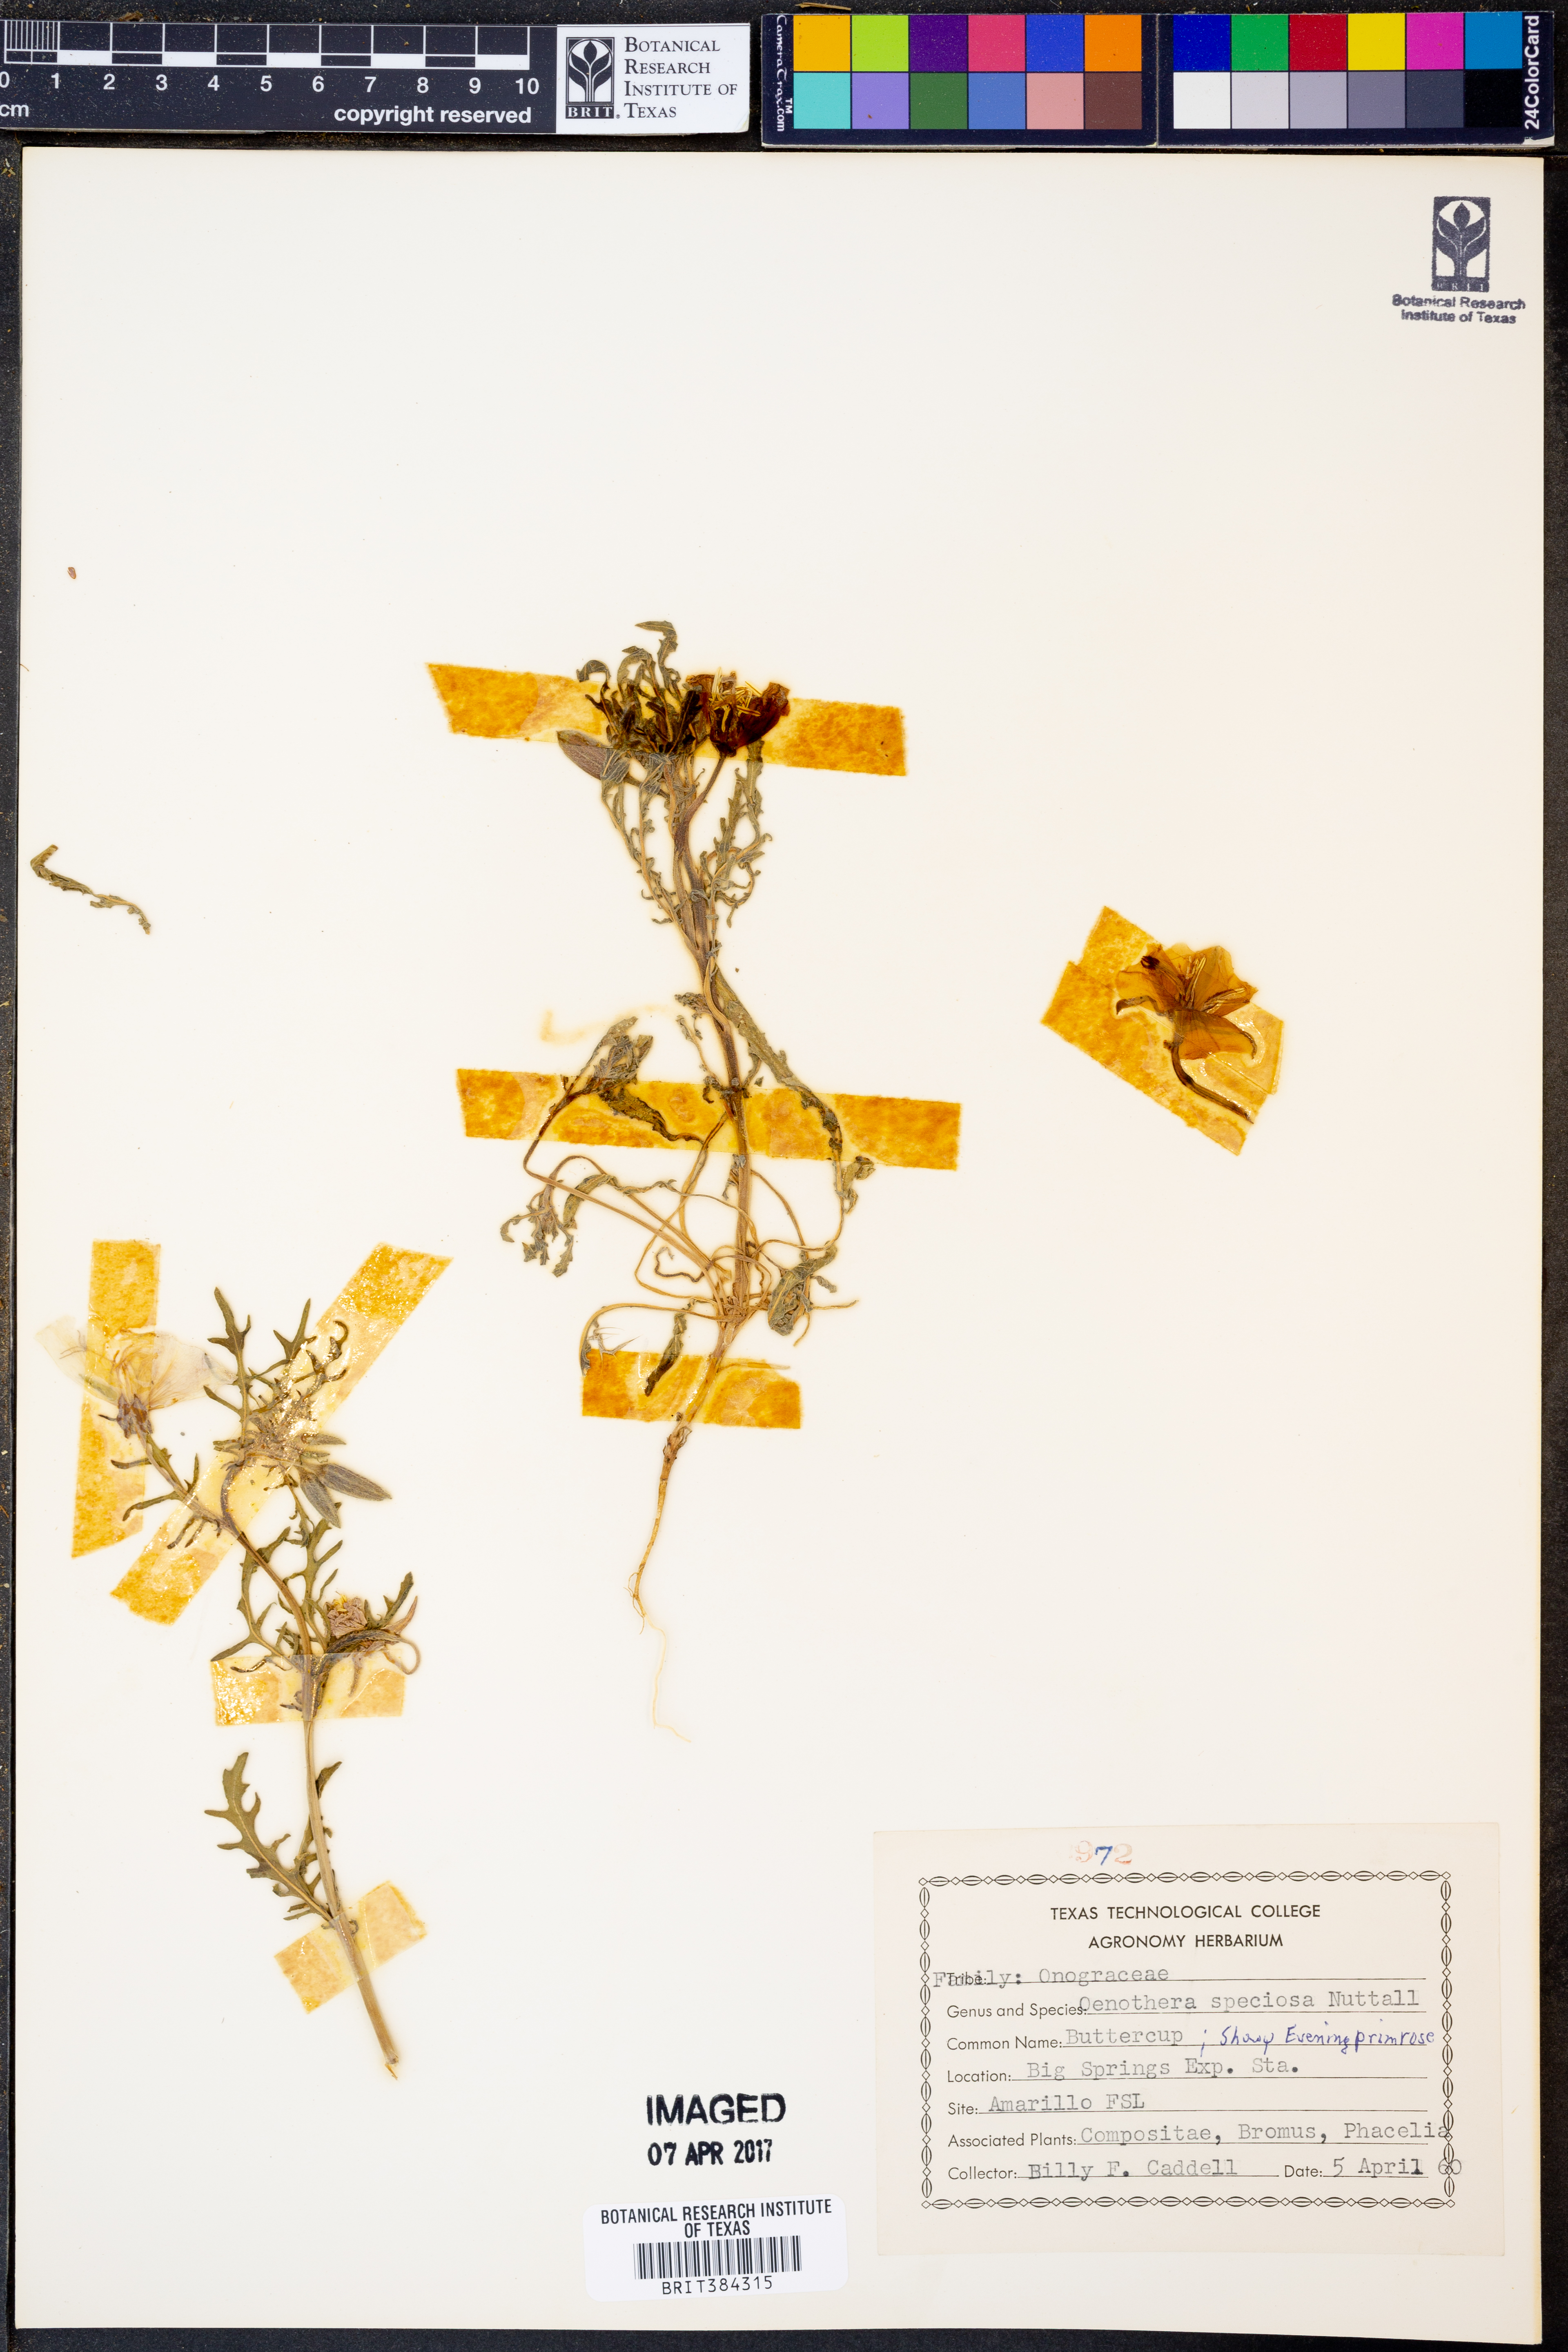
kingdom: Plantae
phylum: Tracheophyta
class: Magnoliopsida
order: Myrtales
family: Onagraceae
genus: Oenothera
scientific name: Oenothera speciosa
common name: White evening-primrose
